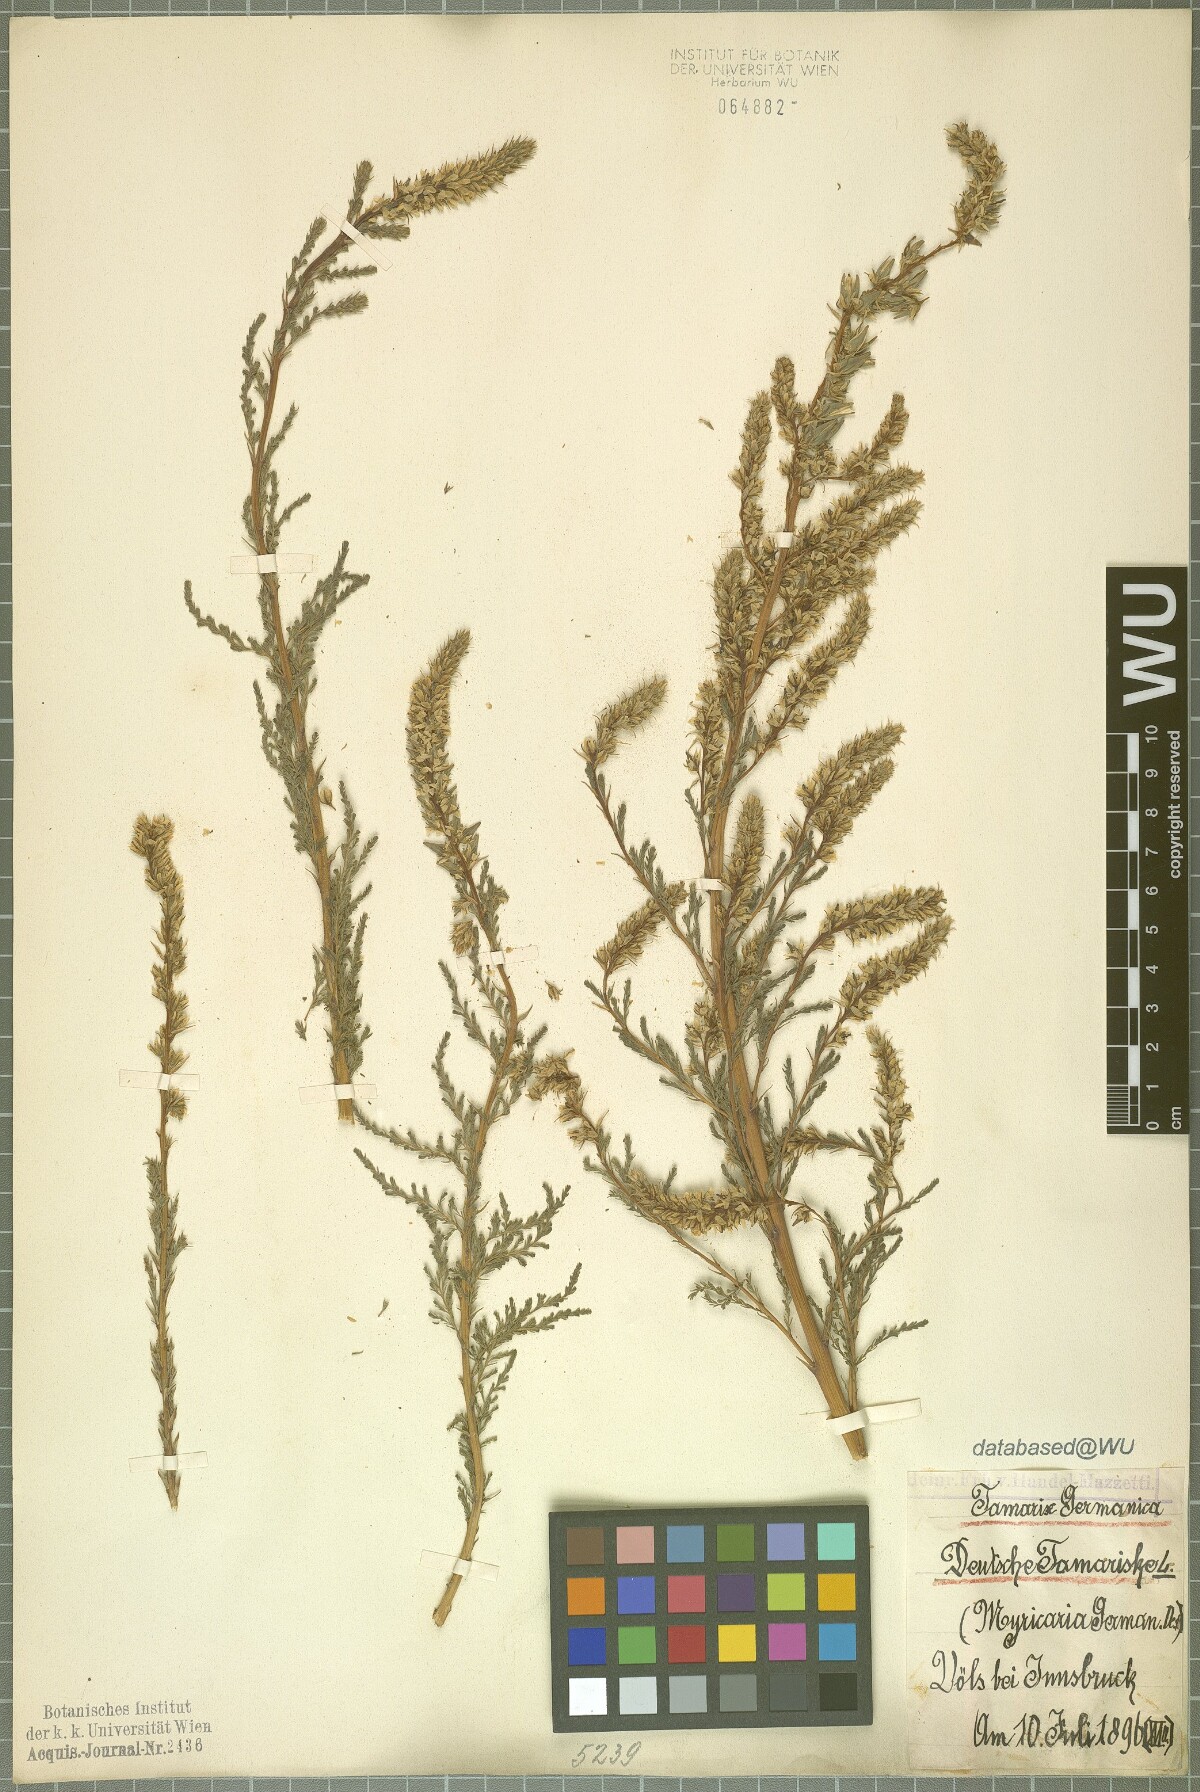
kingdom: Plantae
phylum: Tracheophyta
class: Magnoliopsida
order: Caryophyllales
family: Tamaricaceae
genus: Myricaria
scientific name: Myricaria germanica
